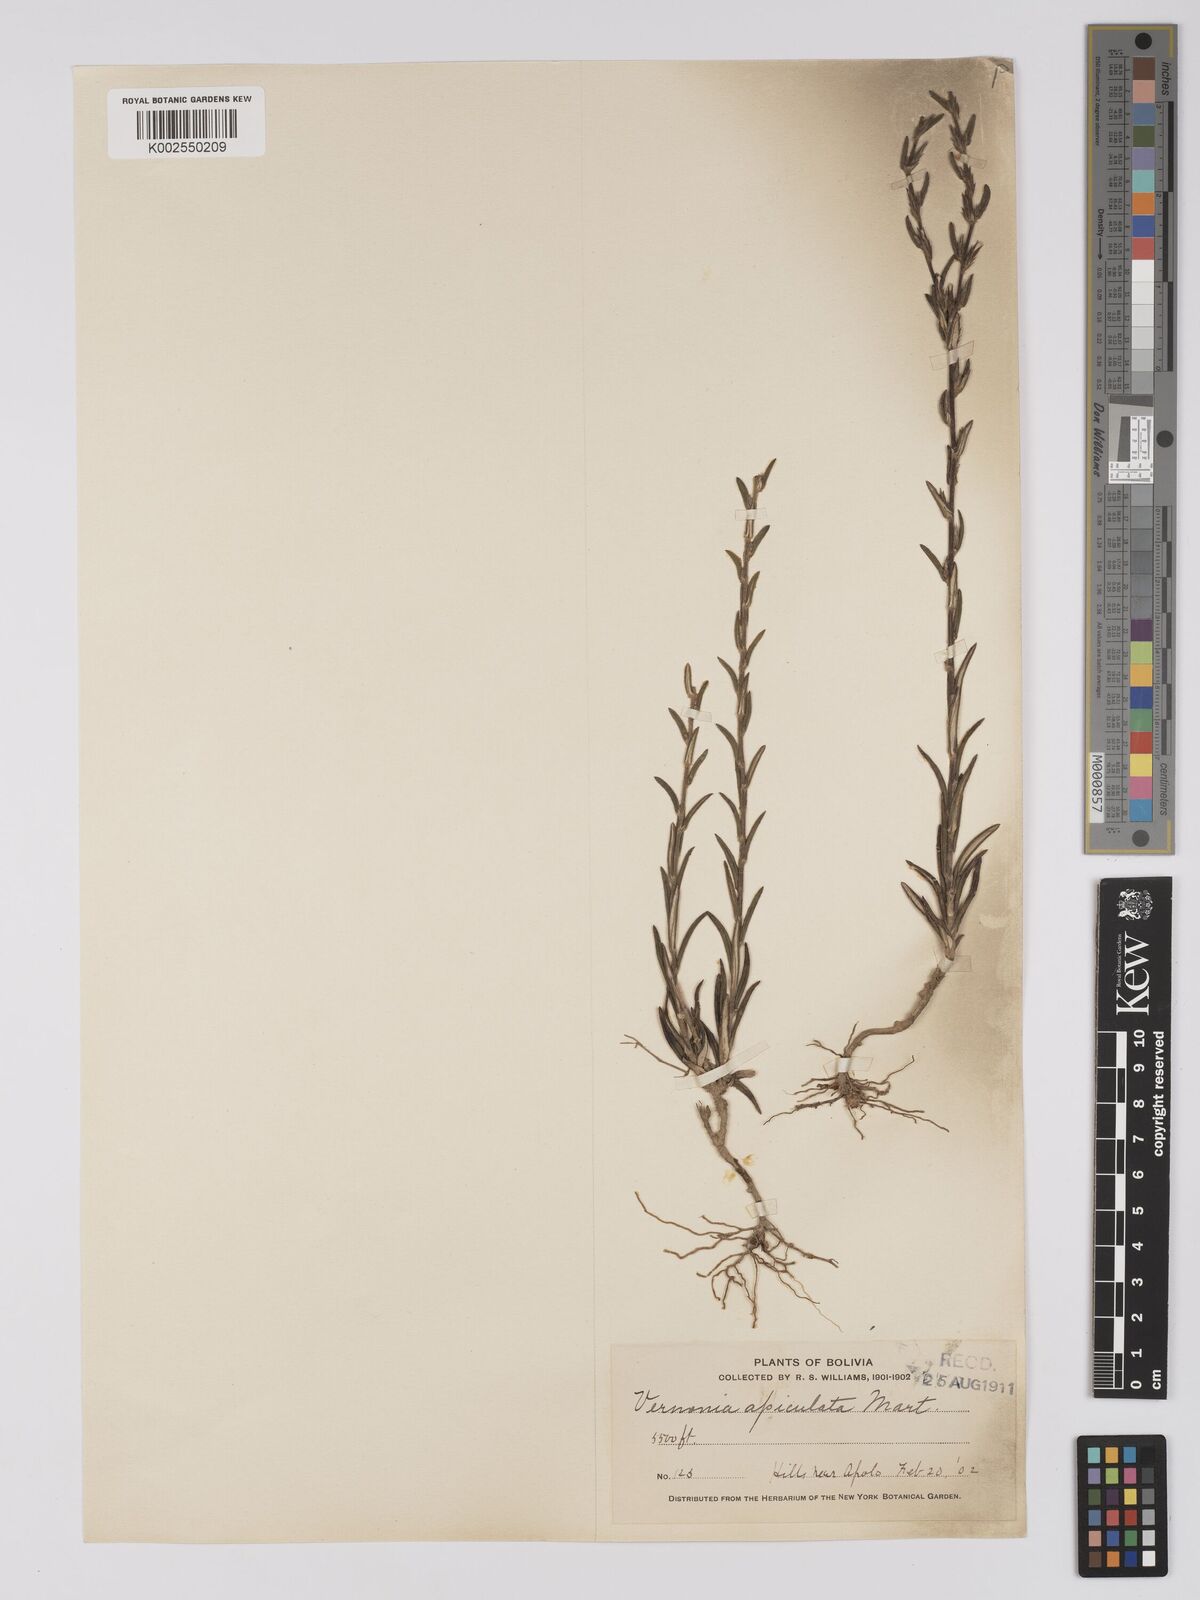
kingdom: Plantae
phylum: Tracheophyta
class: Magnoliopsida
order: Asterales
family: Asteraceae
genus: Stenocephalum
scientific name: Stenocephalum apiculatum
